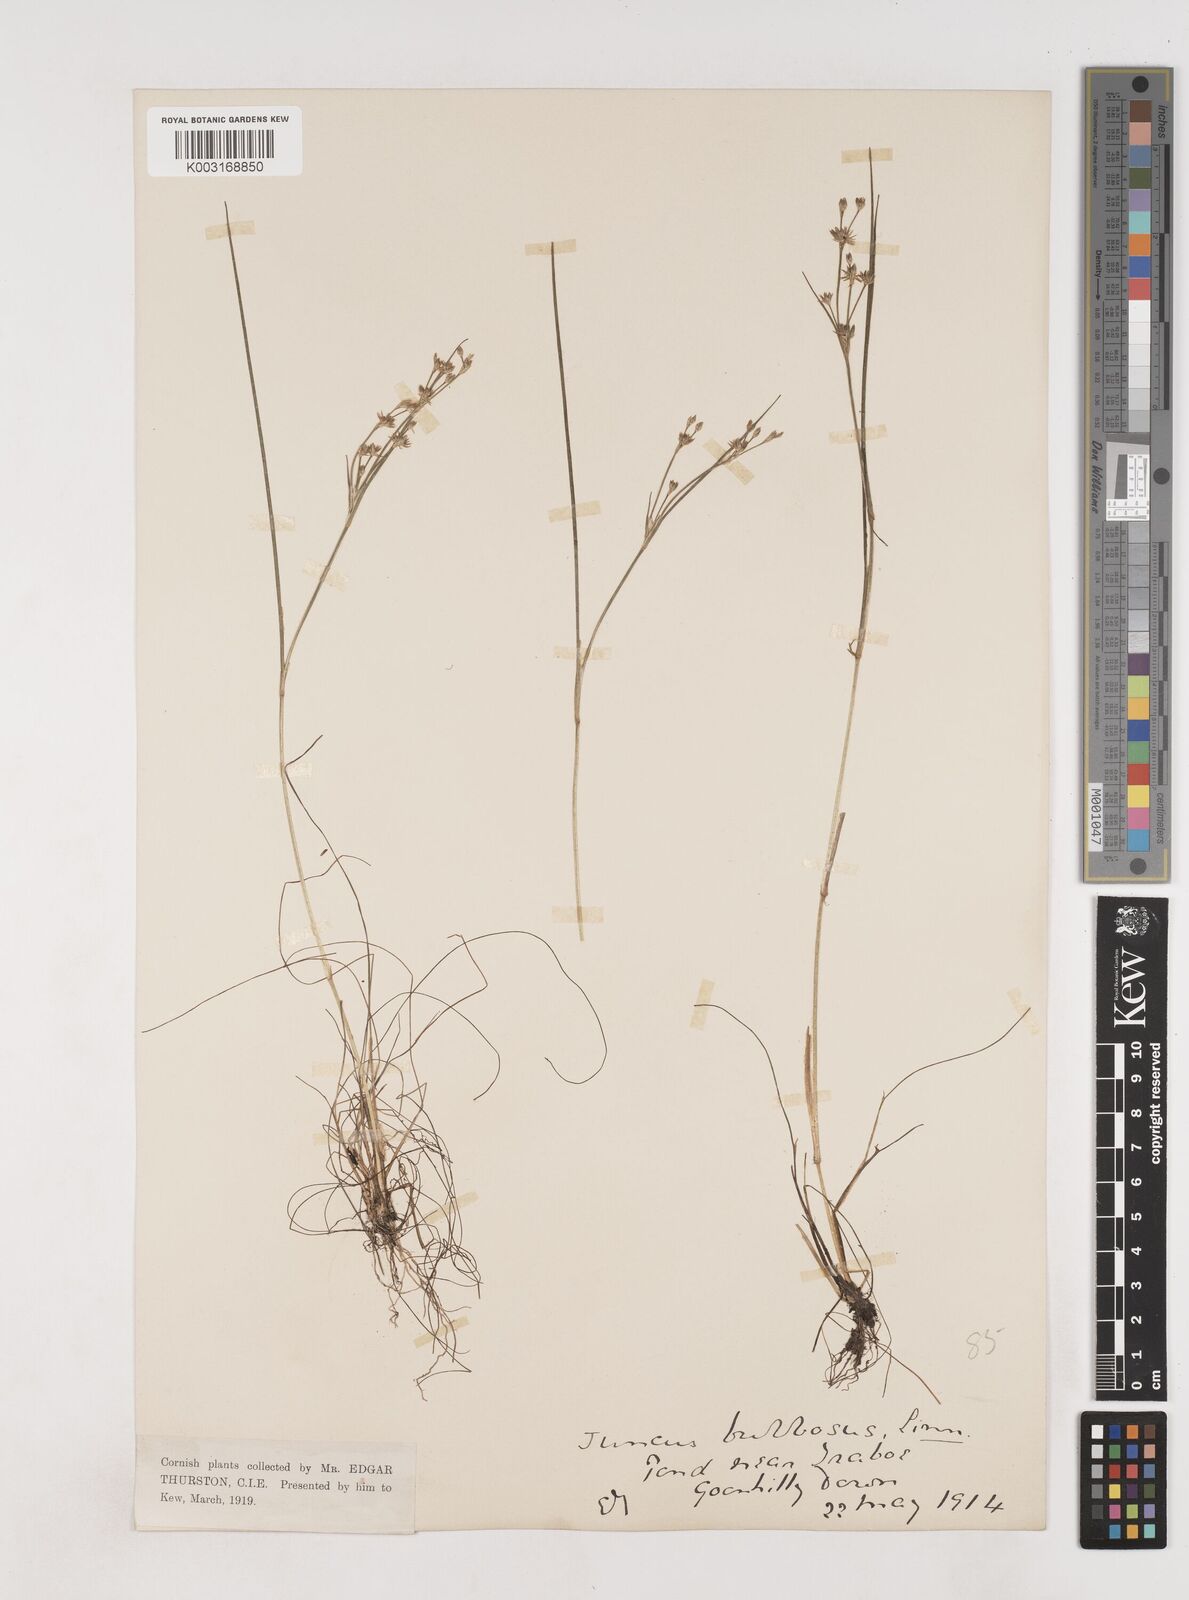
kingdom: Plantae
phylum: Tracheophyta
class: Liliopsida
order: Poales
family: Juncaceae
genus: Juncus
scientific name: Juncus bulbosus
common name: Bulbous rush
